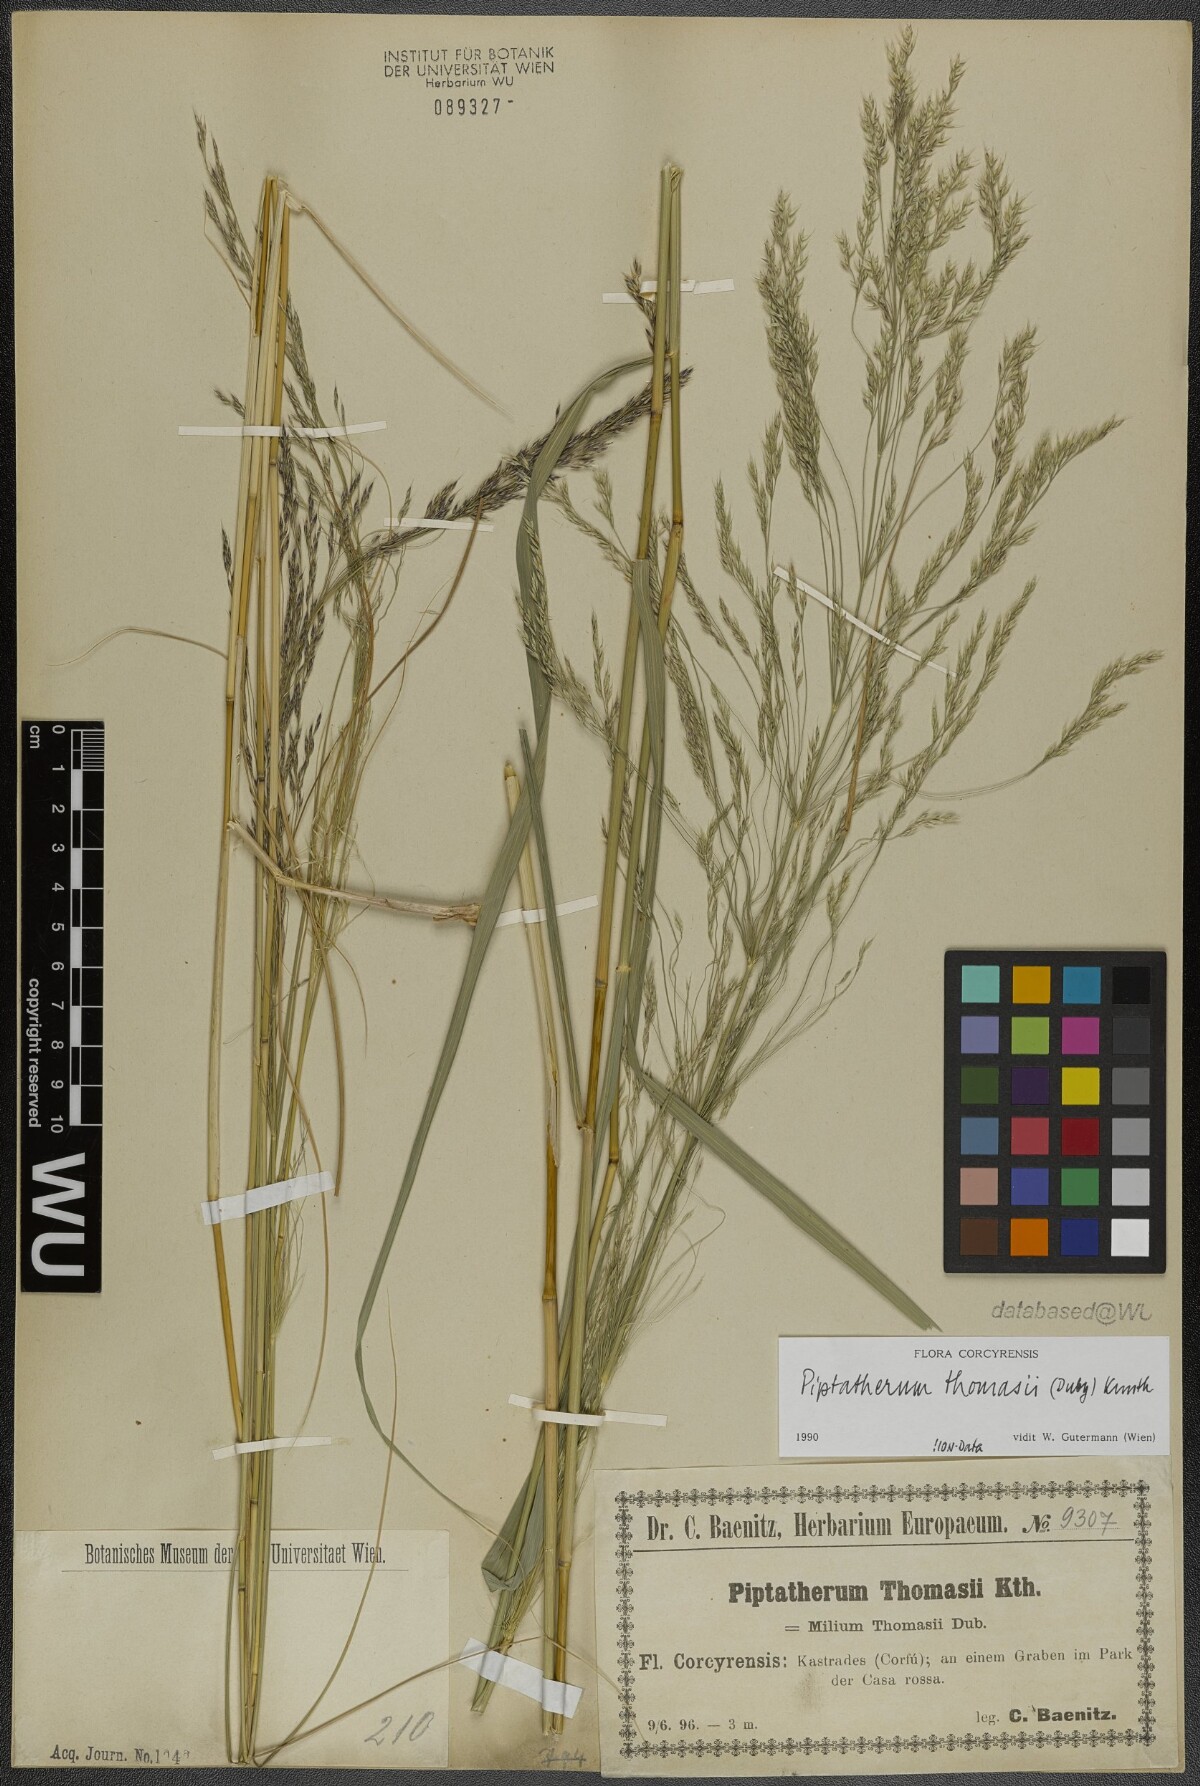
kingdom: Plantae
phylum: Tracheophyta
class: Liliopsida
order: Poales
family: Poaceae
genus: Oloptum
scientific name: Oloptum thomasii
